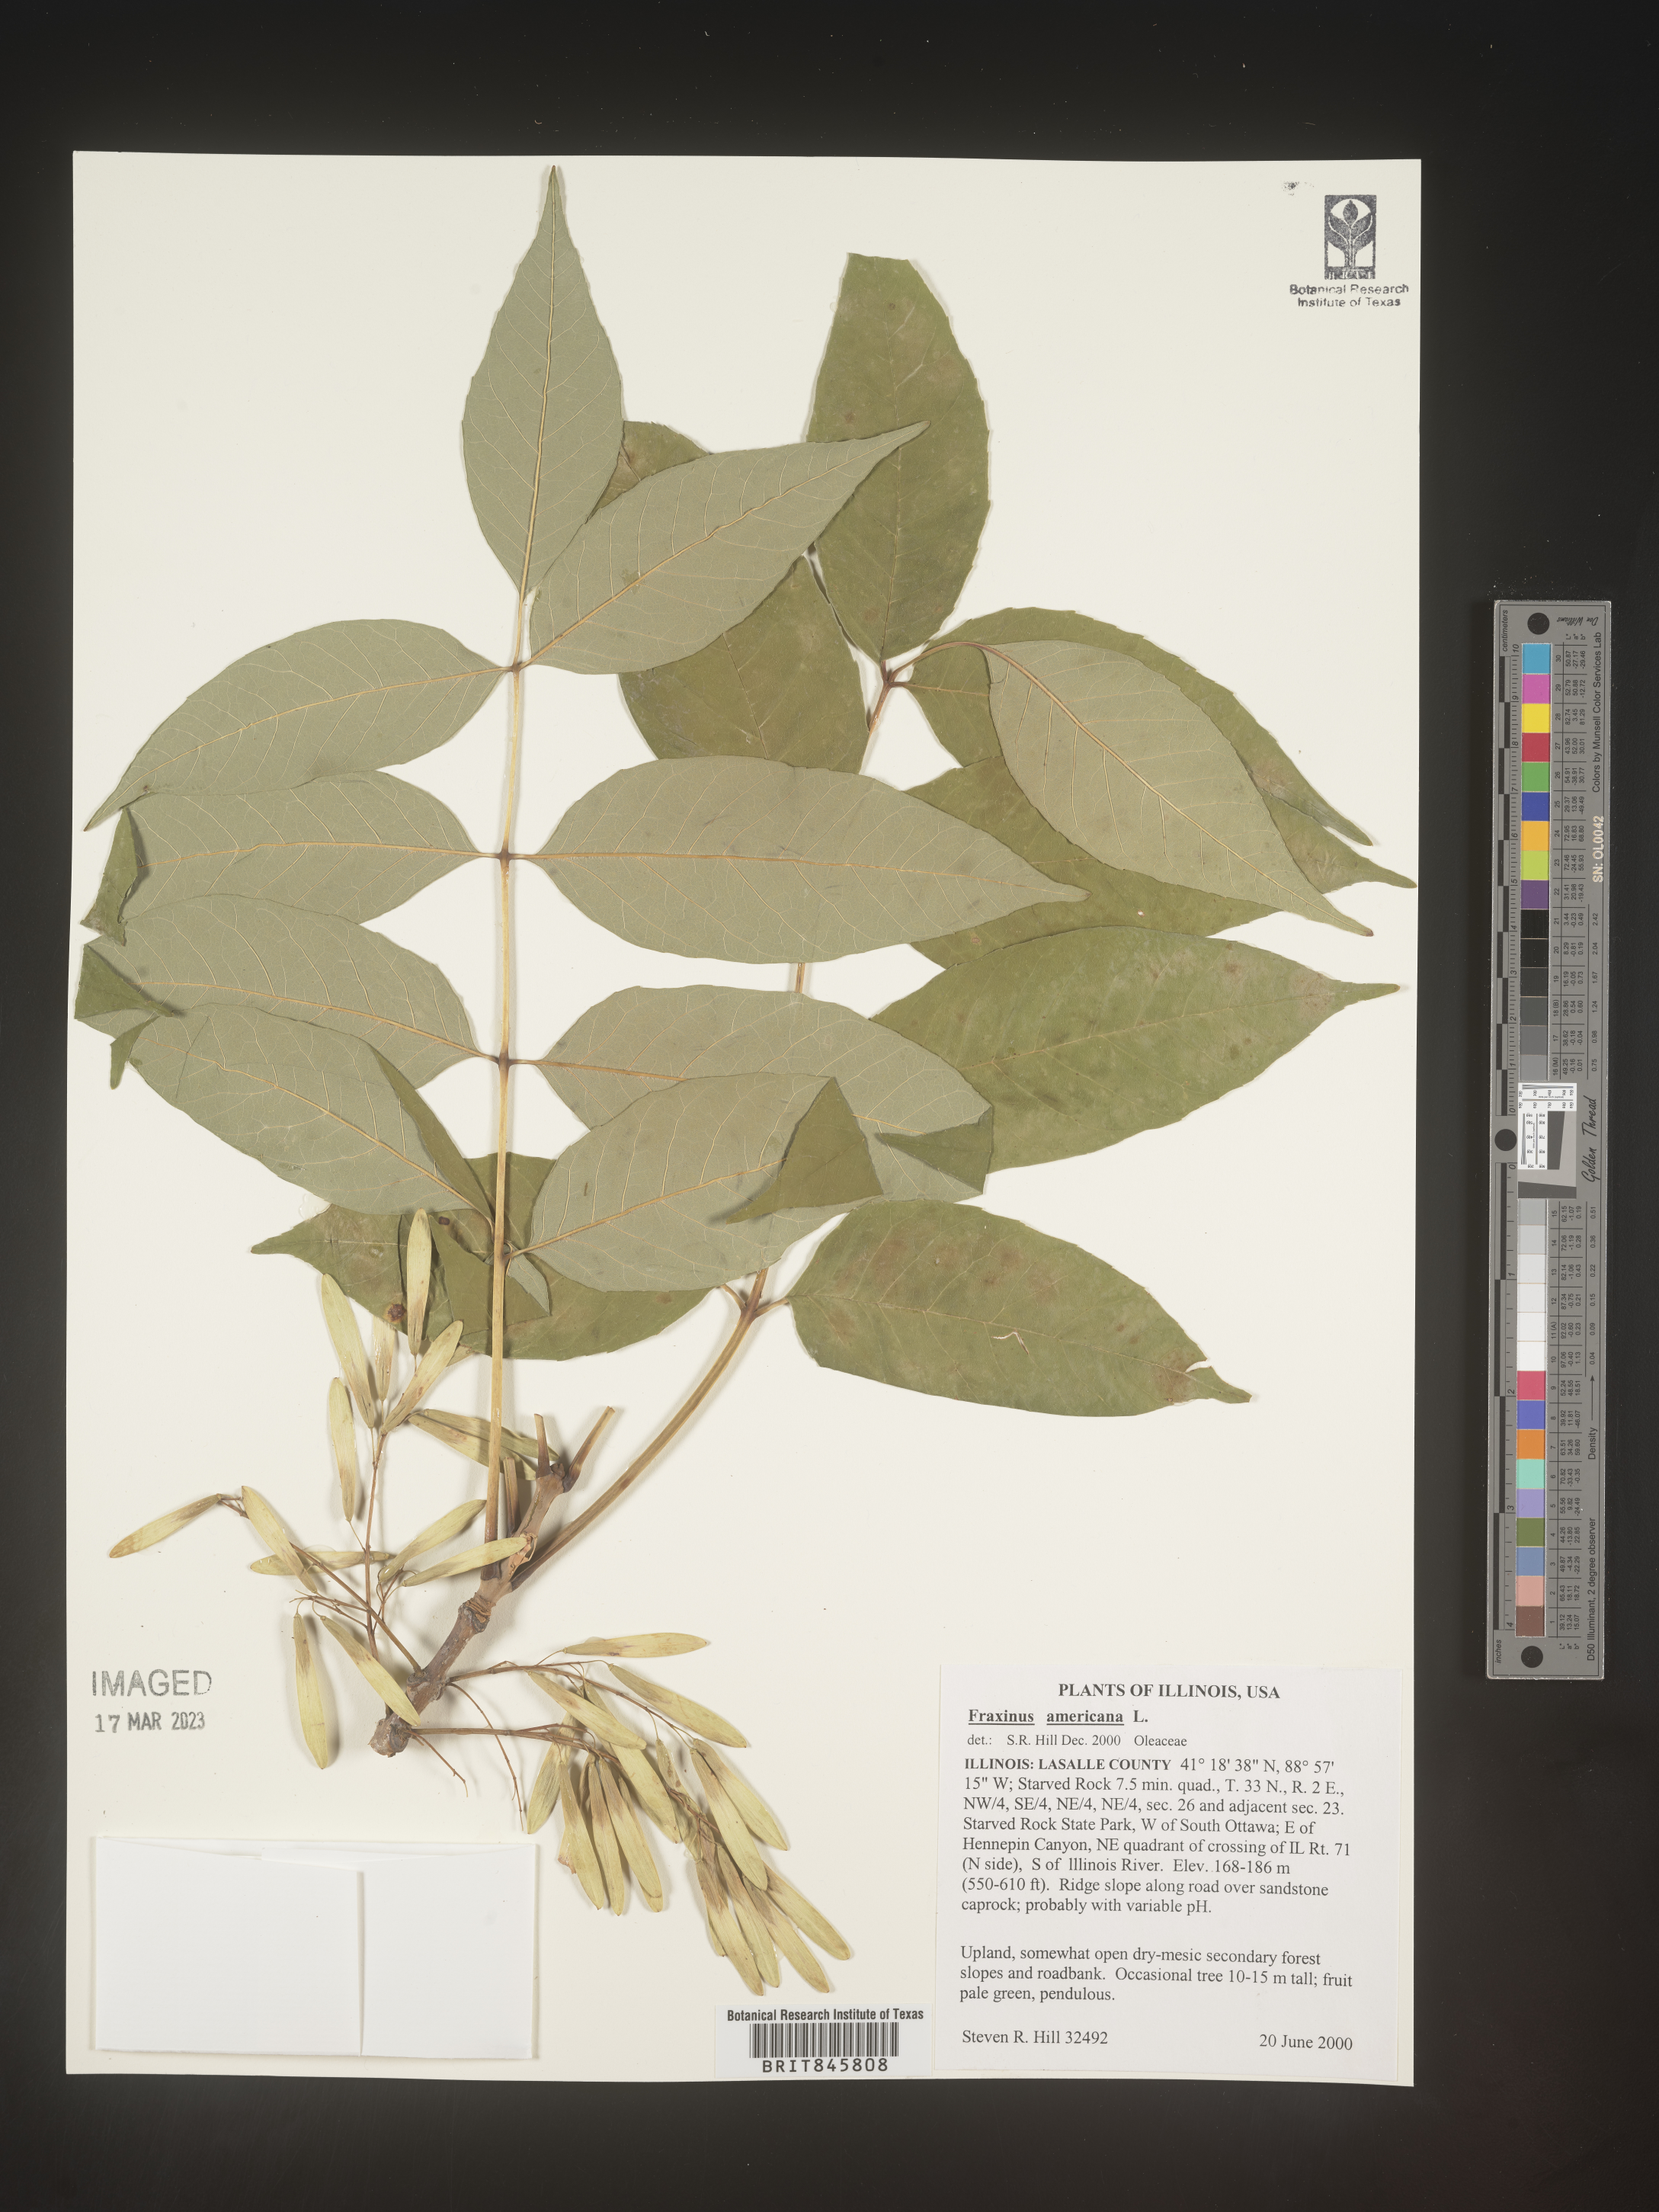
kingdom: Plantae
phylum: Tracheophyta
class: Magnoliopsida
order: Lamiales
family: Oleaceae
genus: Fraxinus
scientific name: Fraxinus americana
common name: White ash
